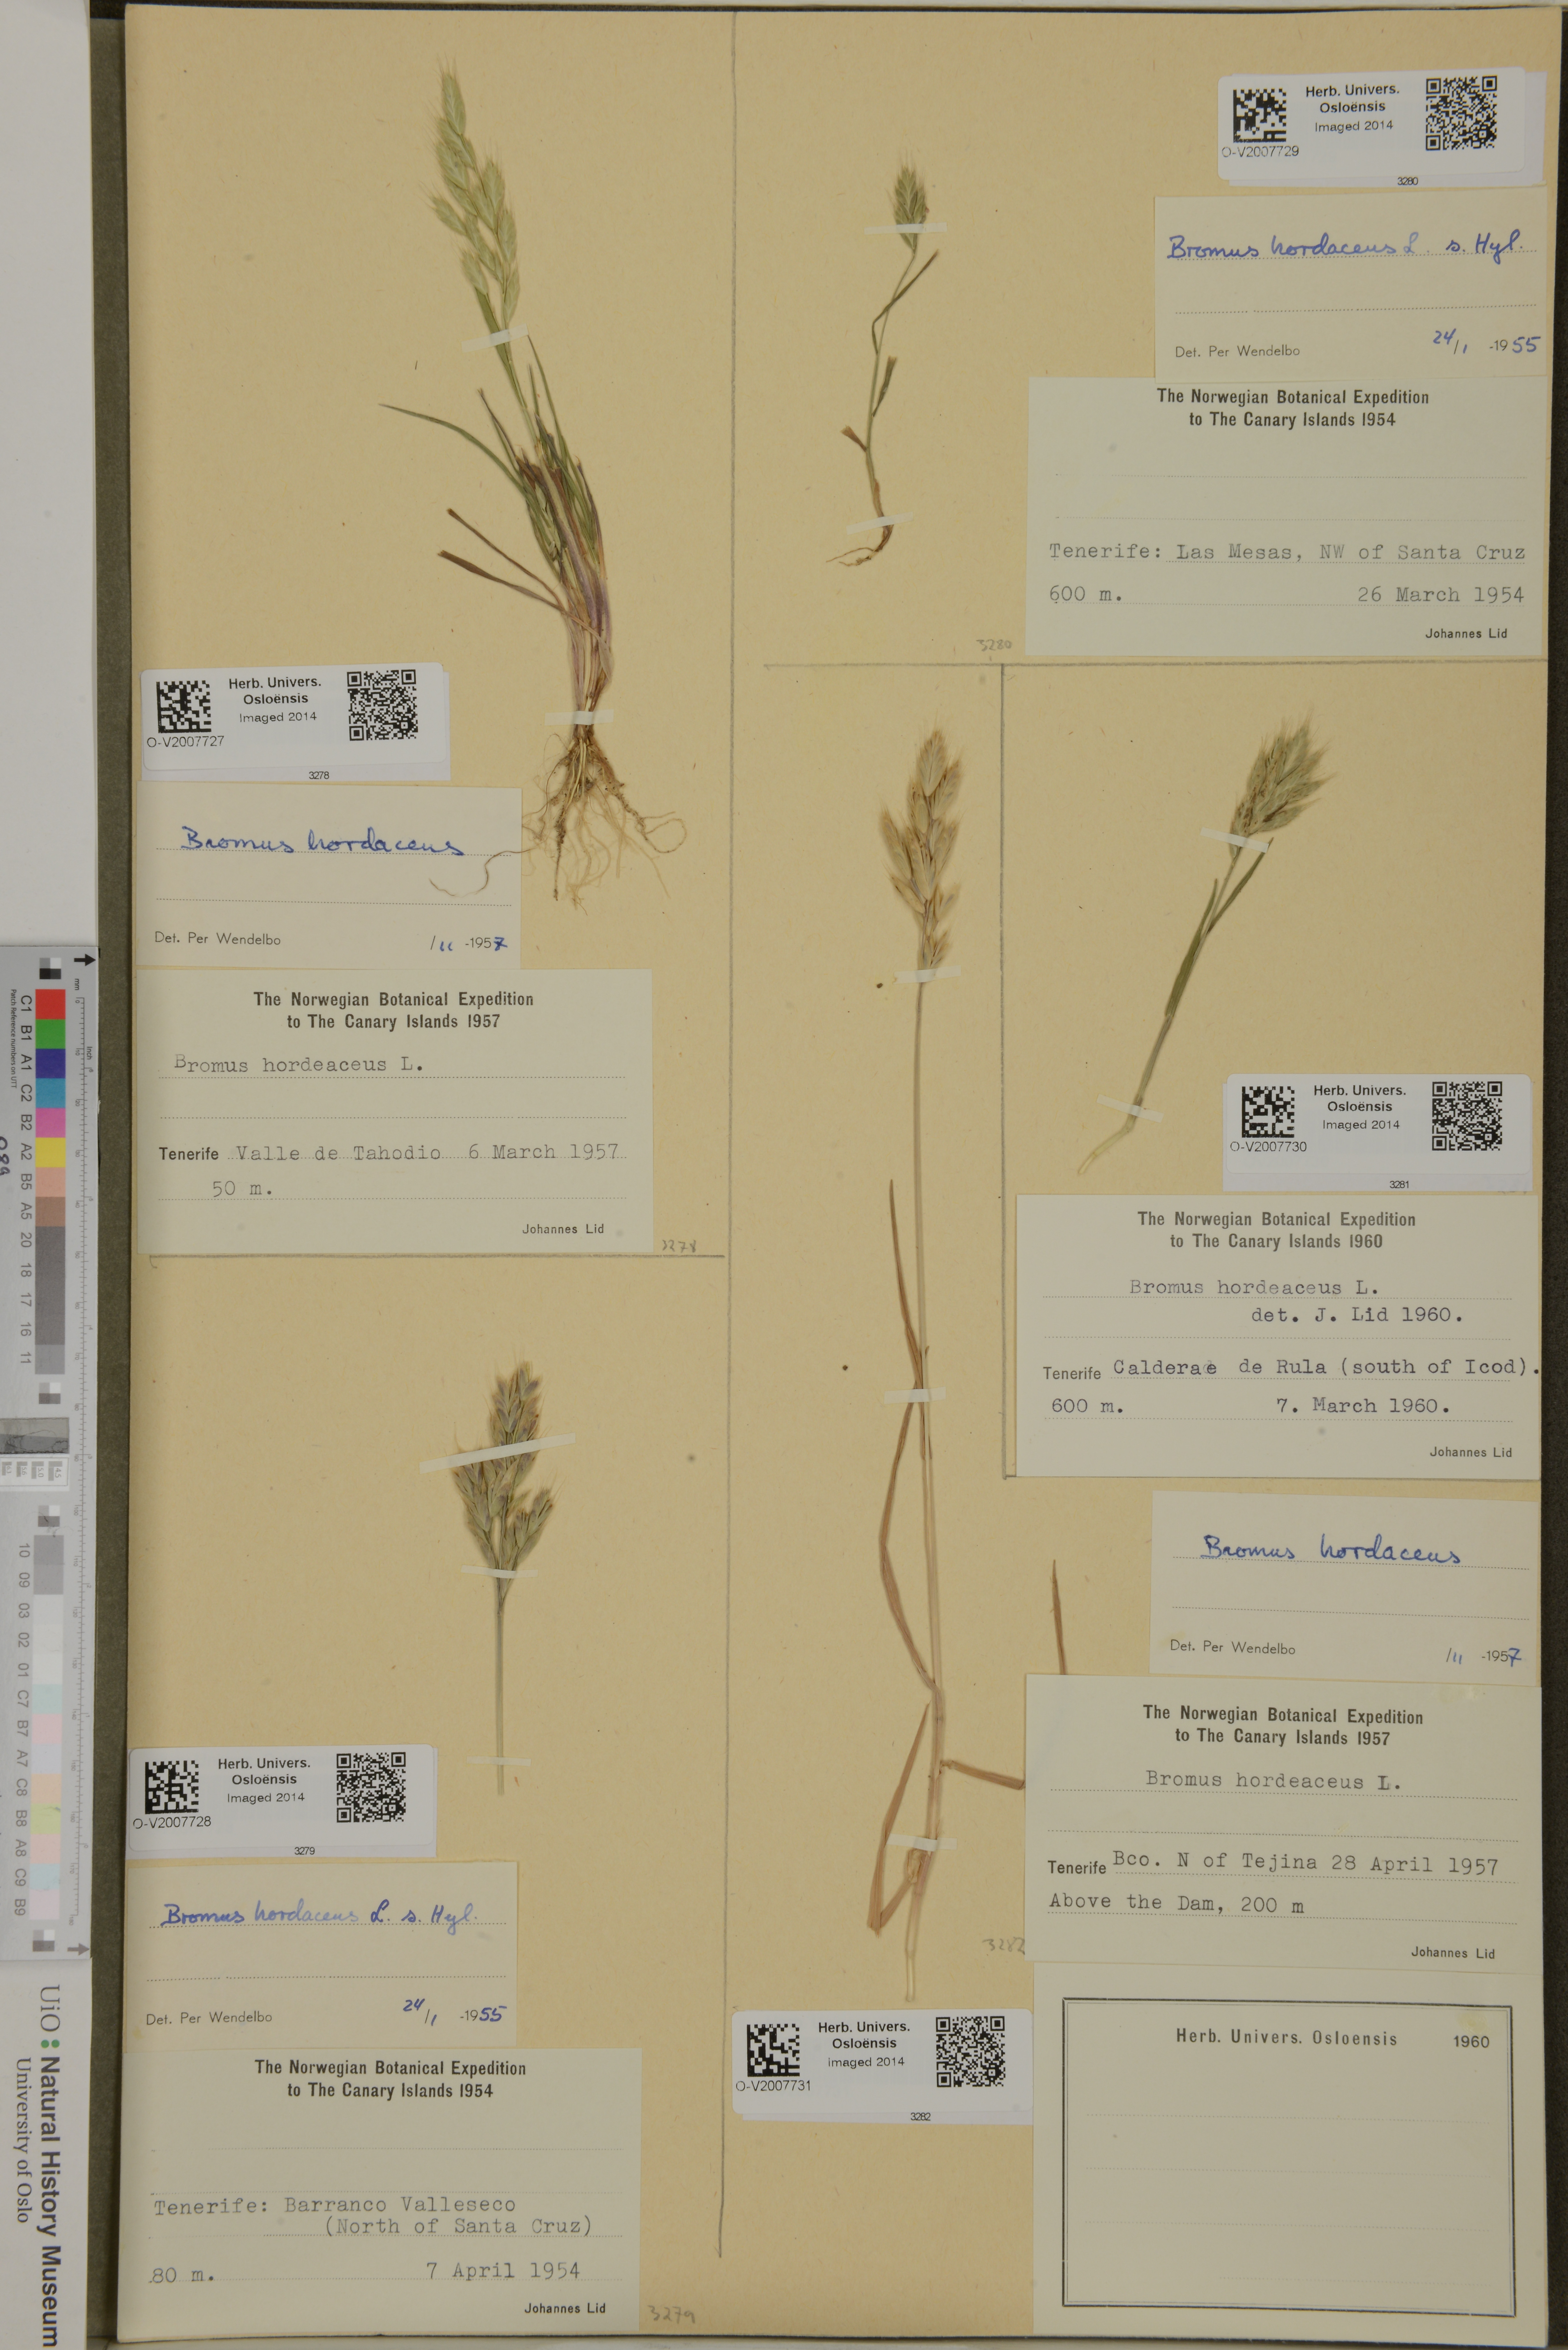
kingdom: Plantae
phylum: Tracheophyta
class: Liliopsida
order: Poales
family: Poaceae
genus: Bromus
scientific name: Bromus hordeaceus
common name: Soft brome
